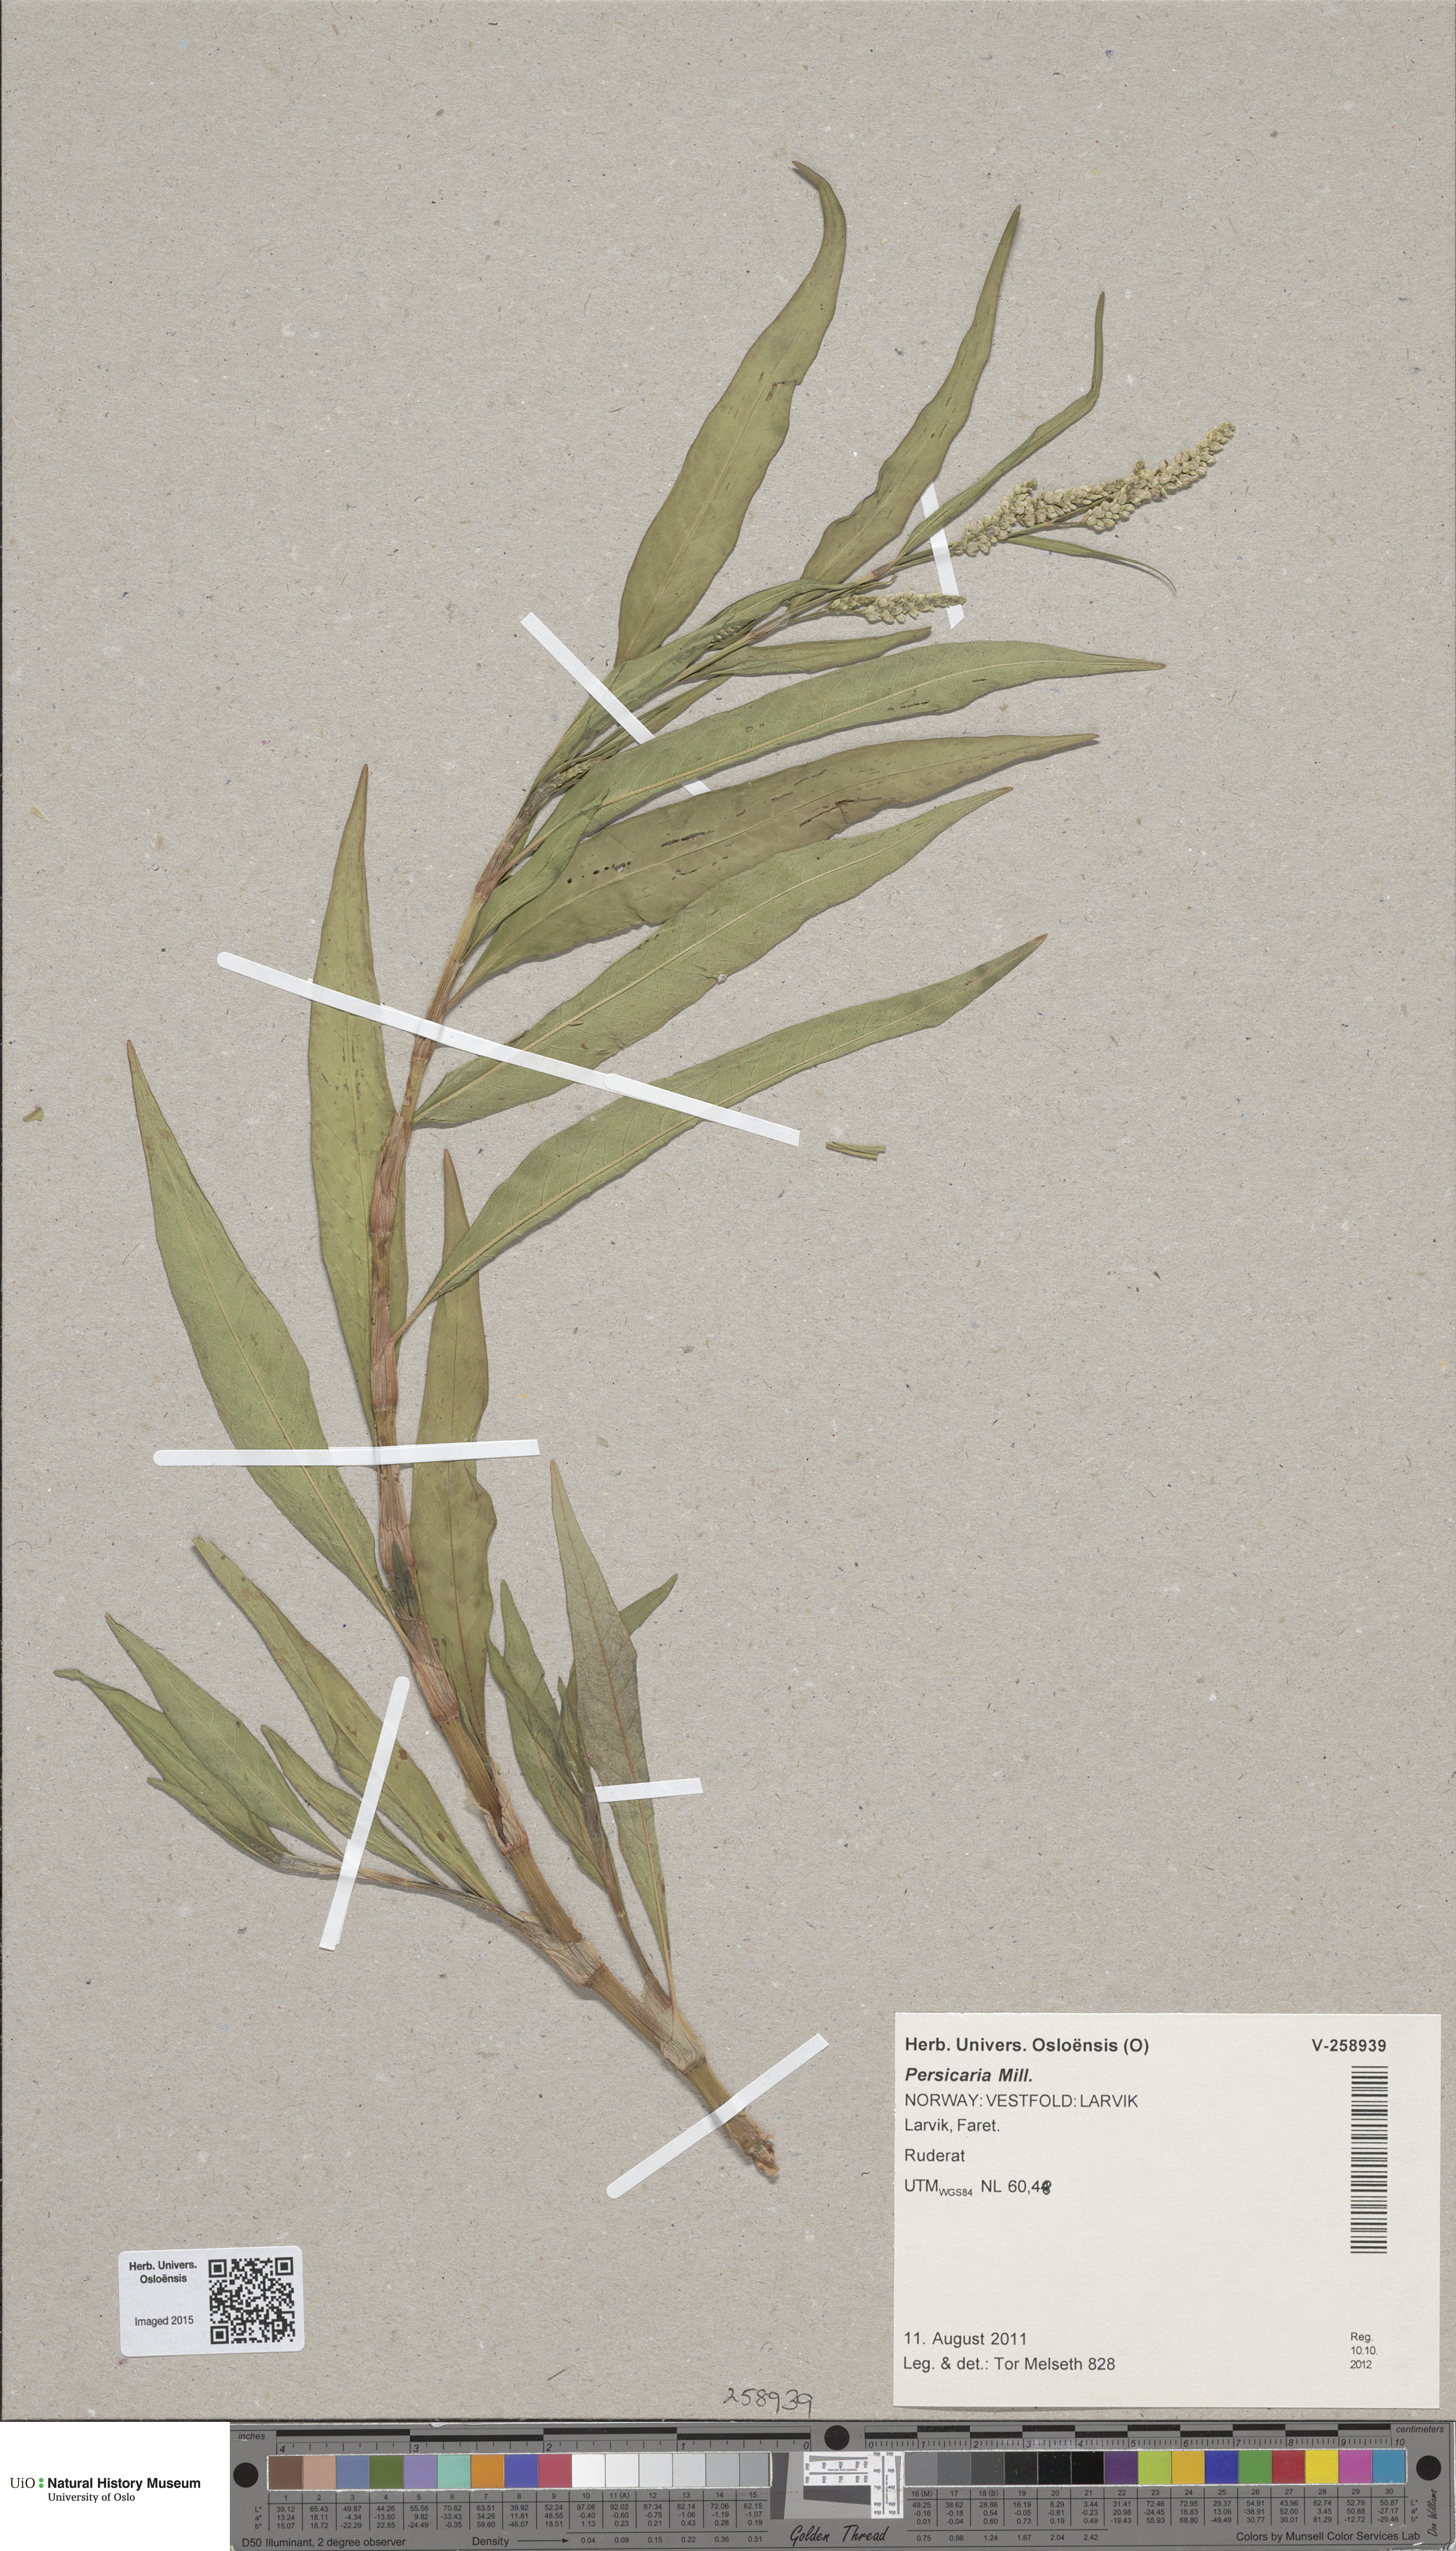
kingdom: Plantae
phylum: Tracheophyta
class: Magnoliopsida
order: Caryophyllales
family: Polygonaceae
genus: Persicaria
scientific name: Persicaria lapathifolia
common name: Curlytop knotweed
